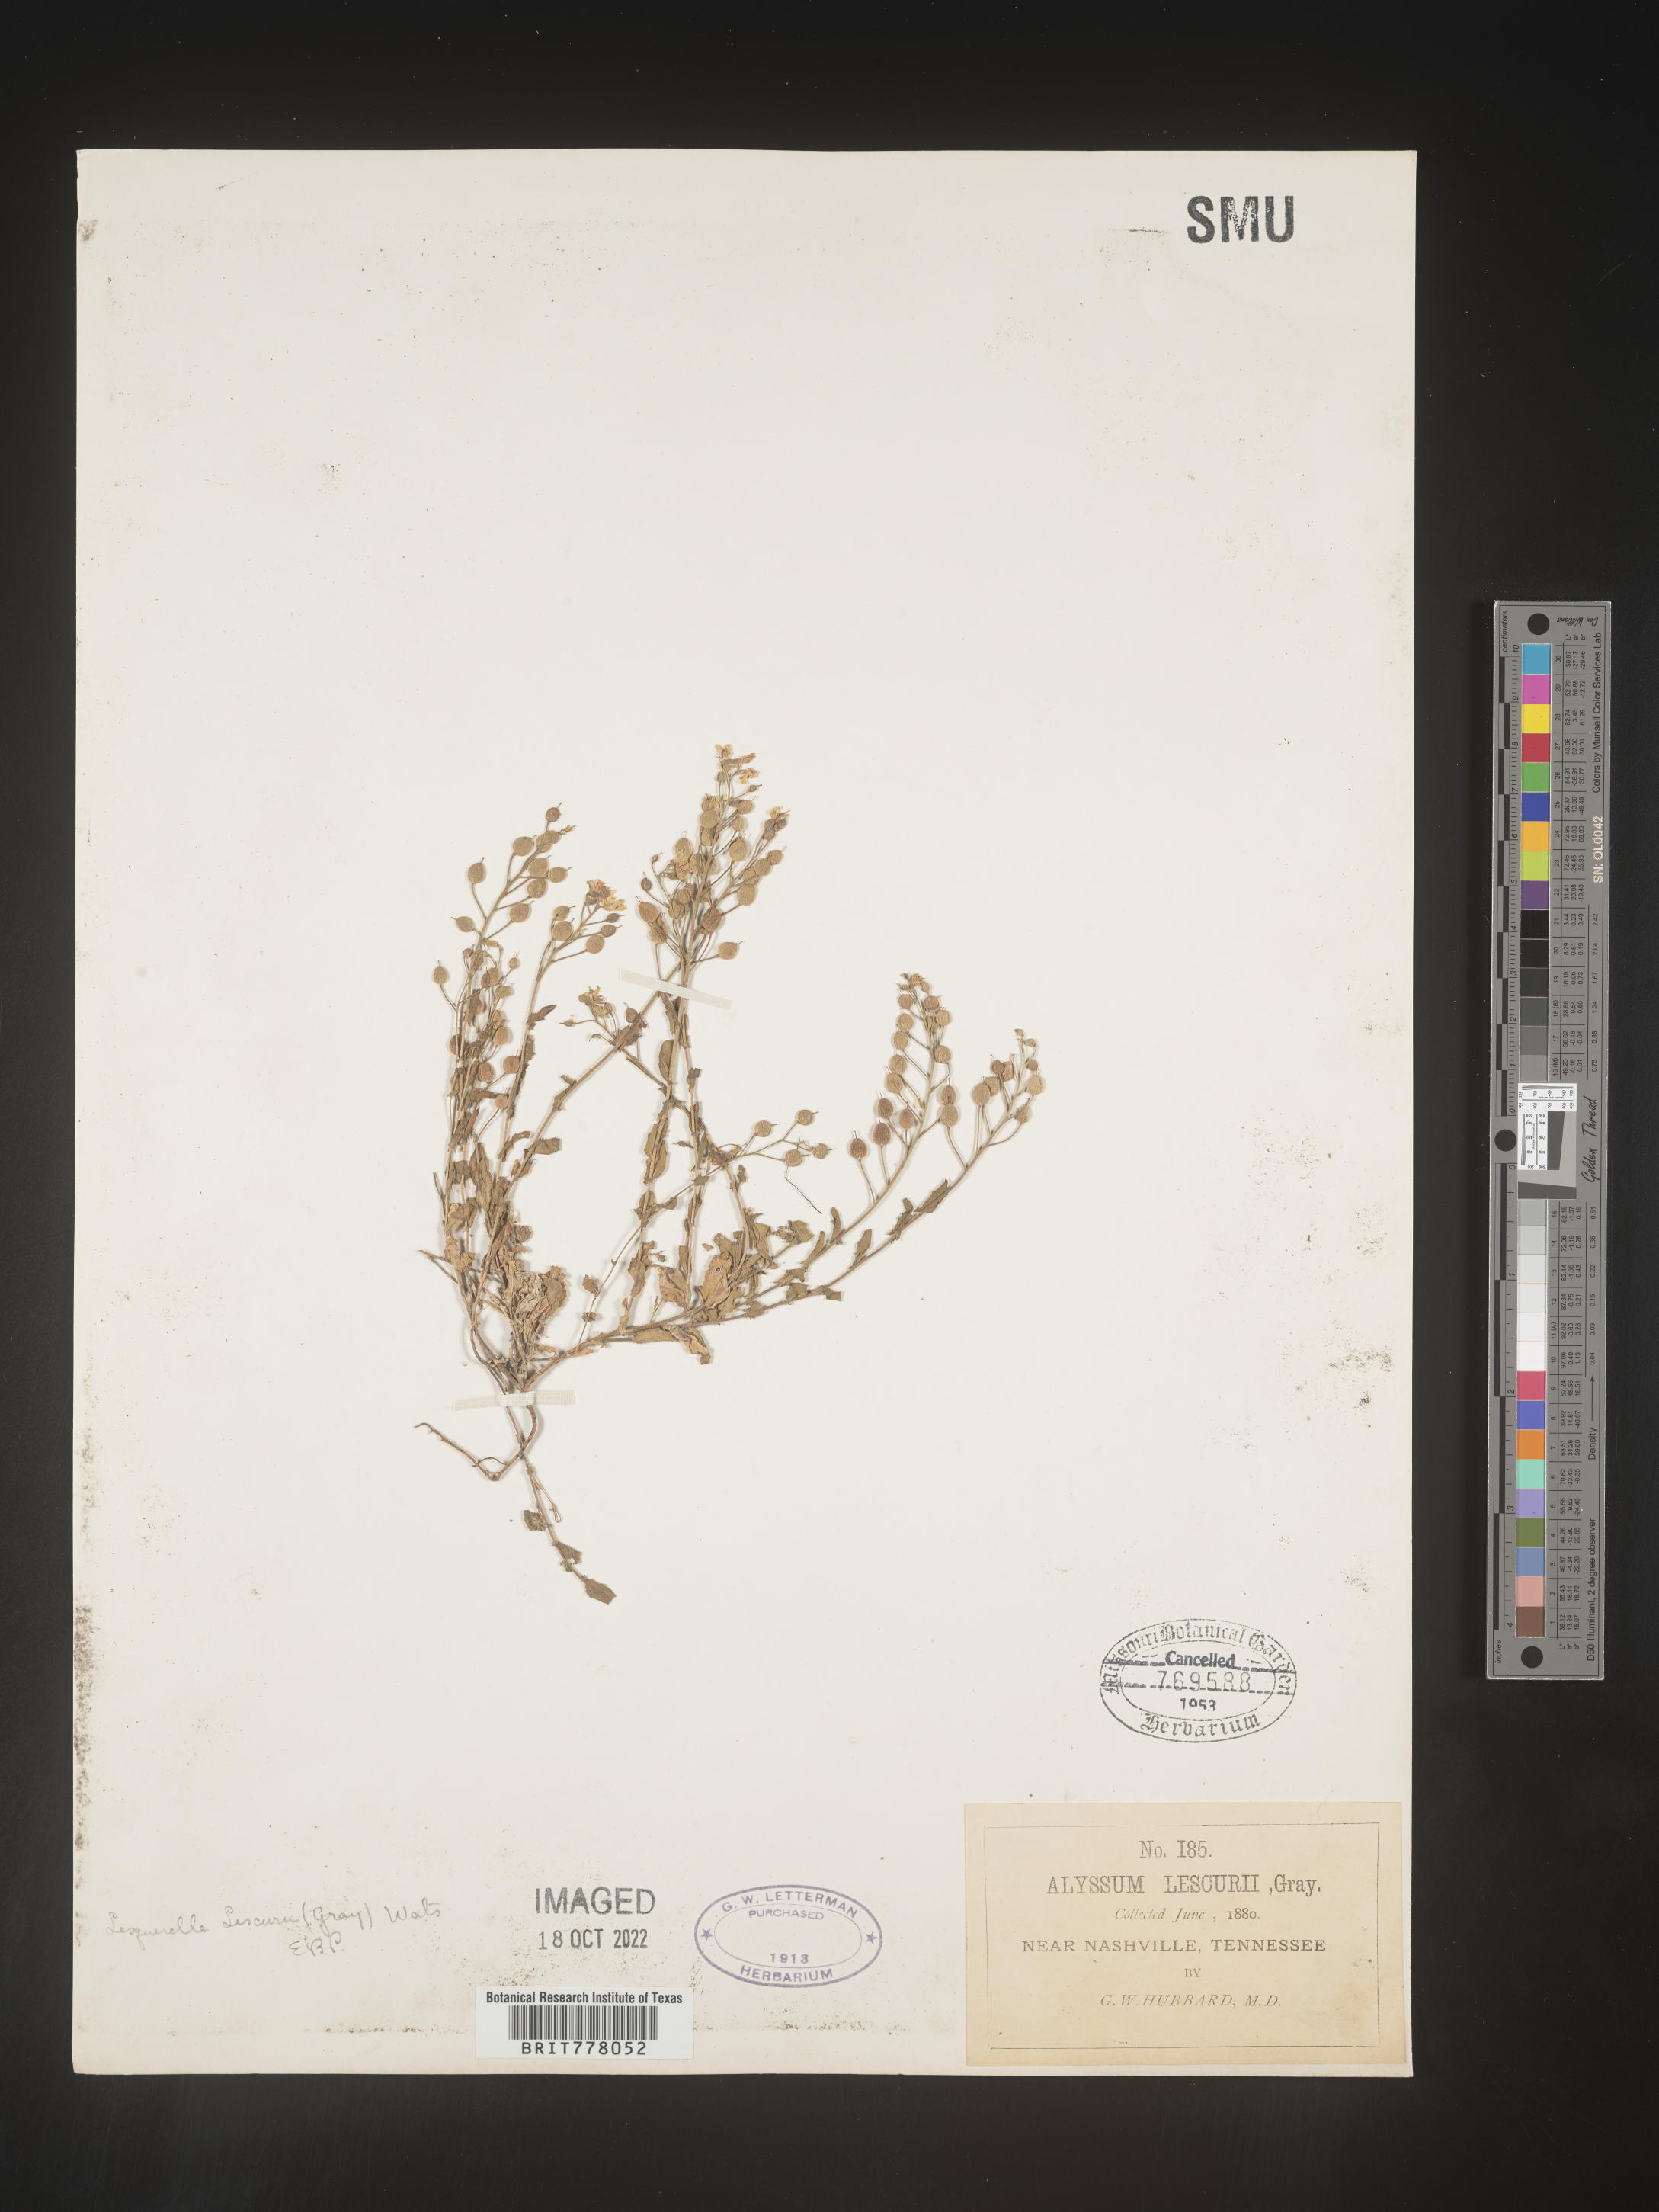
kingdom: Chromista
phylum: Cercozoa
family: Psammonobiotidae
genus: Lesquerella
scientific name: Lesquerella
